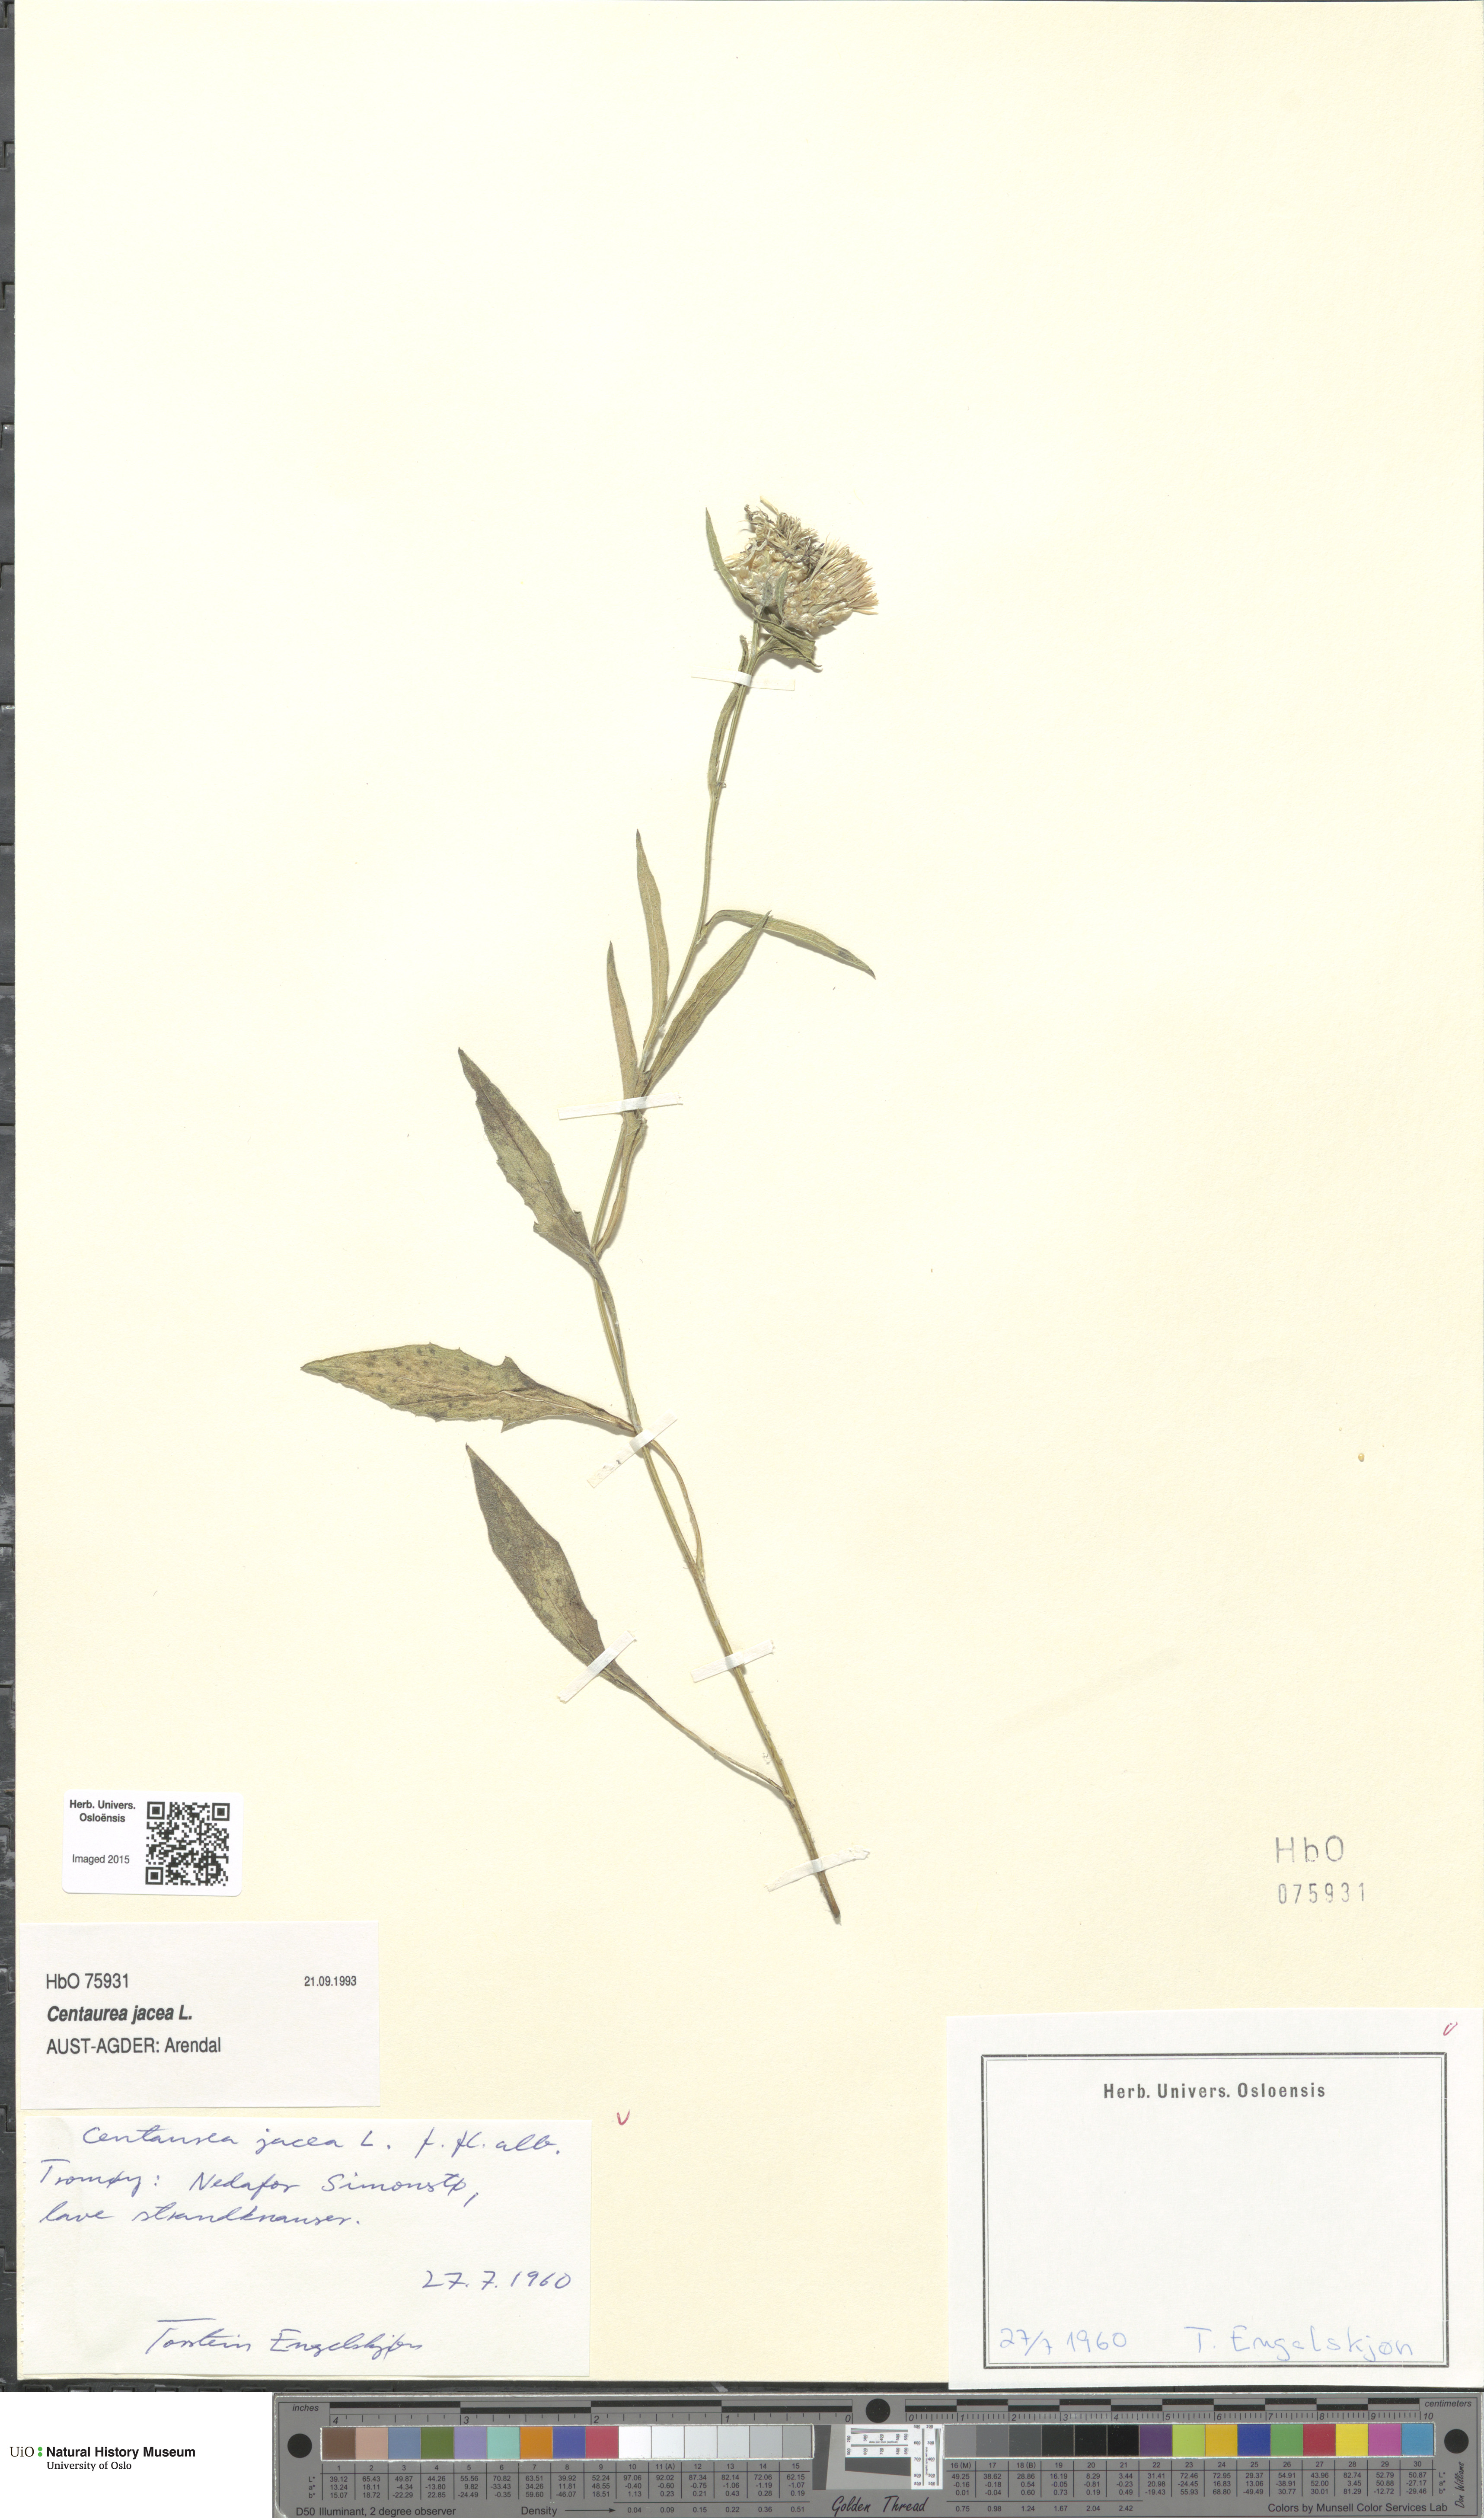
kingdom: Plantae
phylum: Tracheophyta
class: Magnoliopsida
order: Asterales
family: Asteraceae
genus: Centaurea
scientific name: Centaurea jacea
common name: Brown knapweed
